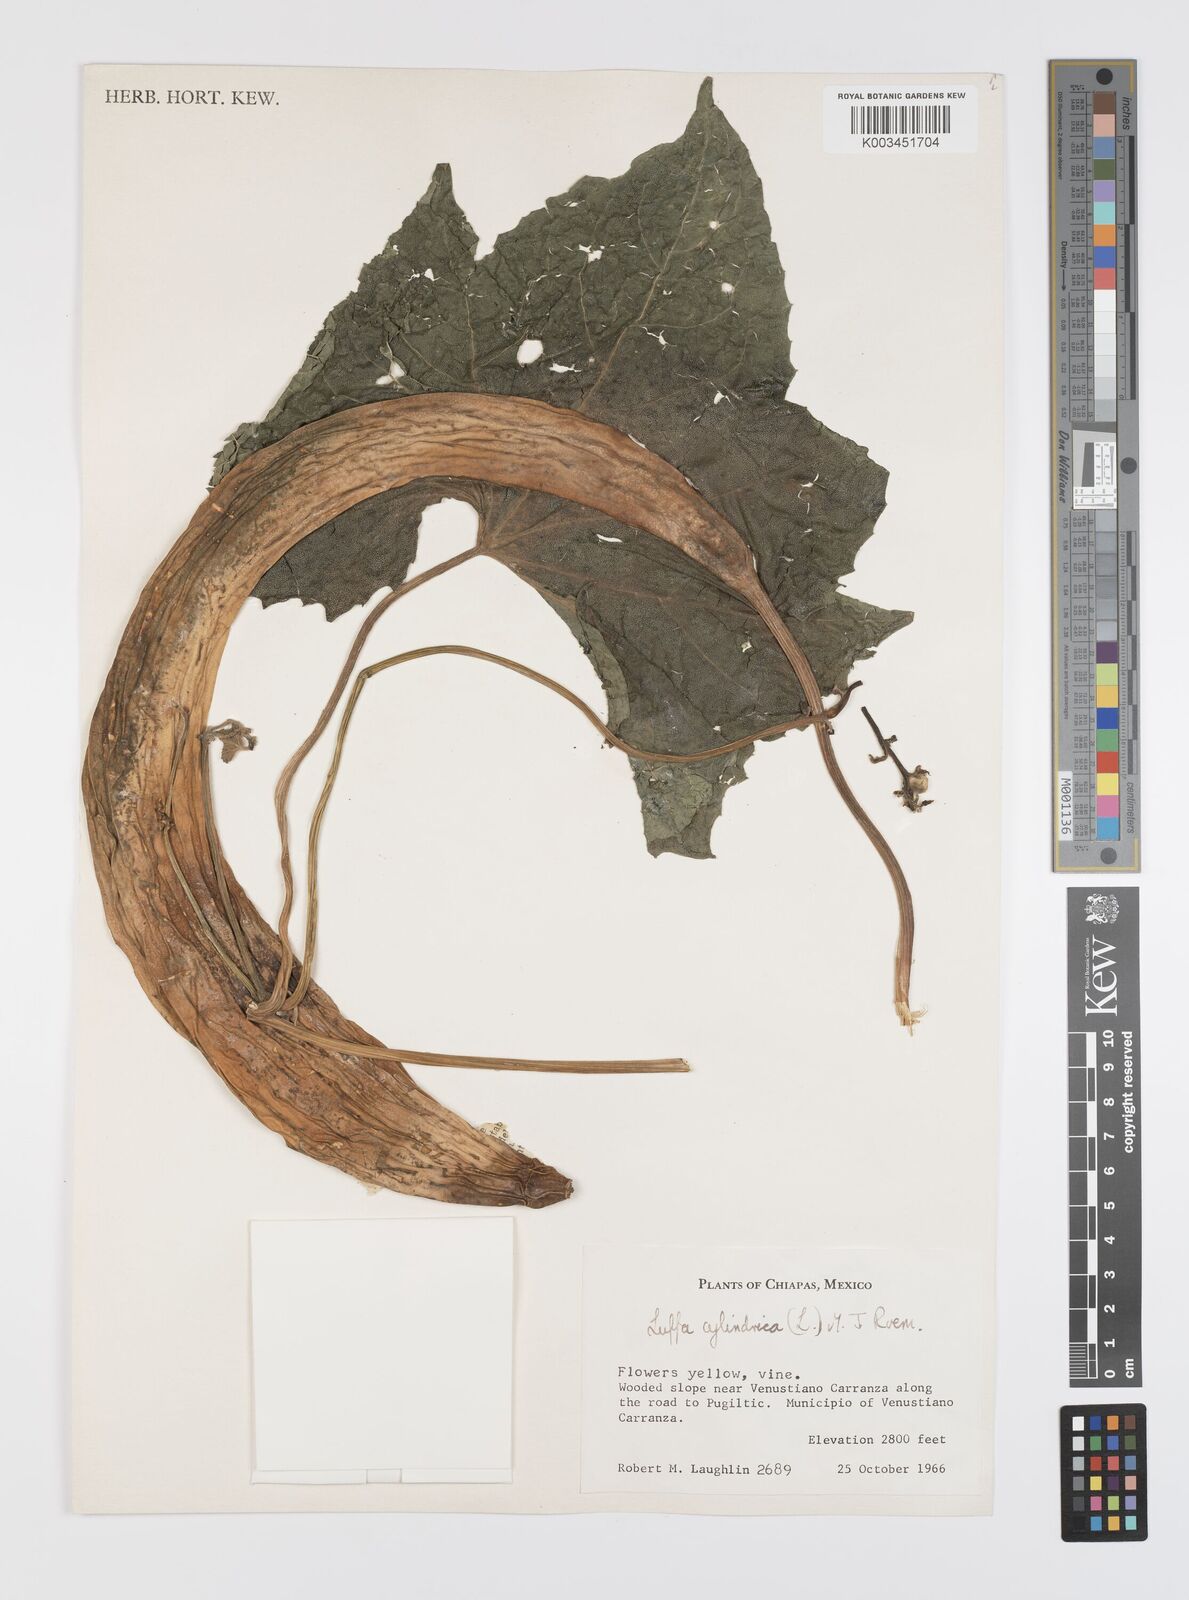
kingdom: Plantae
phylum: Tracheophyta
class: Magnoliopsida
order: Cucurbitales
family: Cucurbitaceae
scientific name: Cucurbitaceae
